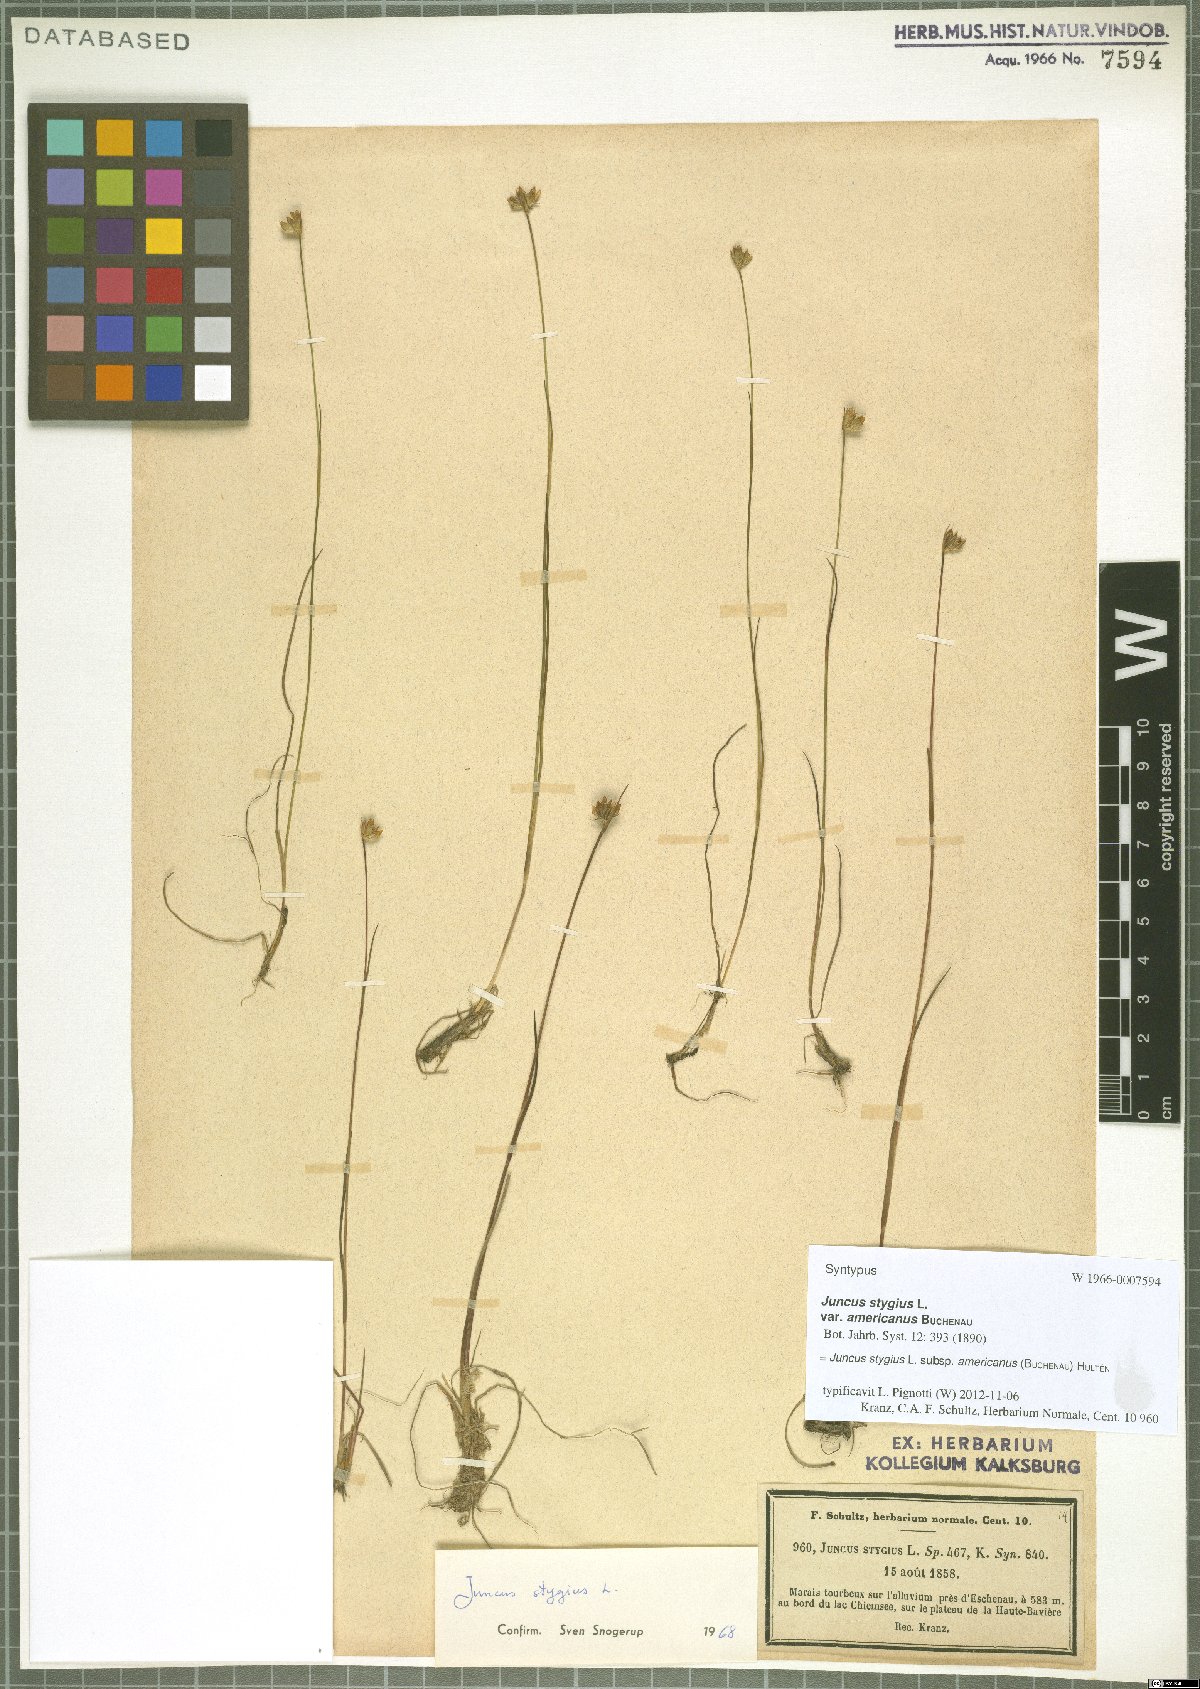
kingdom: Plantae
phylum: Tracheophyta
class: Liliopsida
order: Poales
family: Juncaceae
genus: Juncus
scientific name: Juncus stygius
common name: Bog rush
